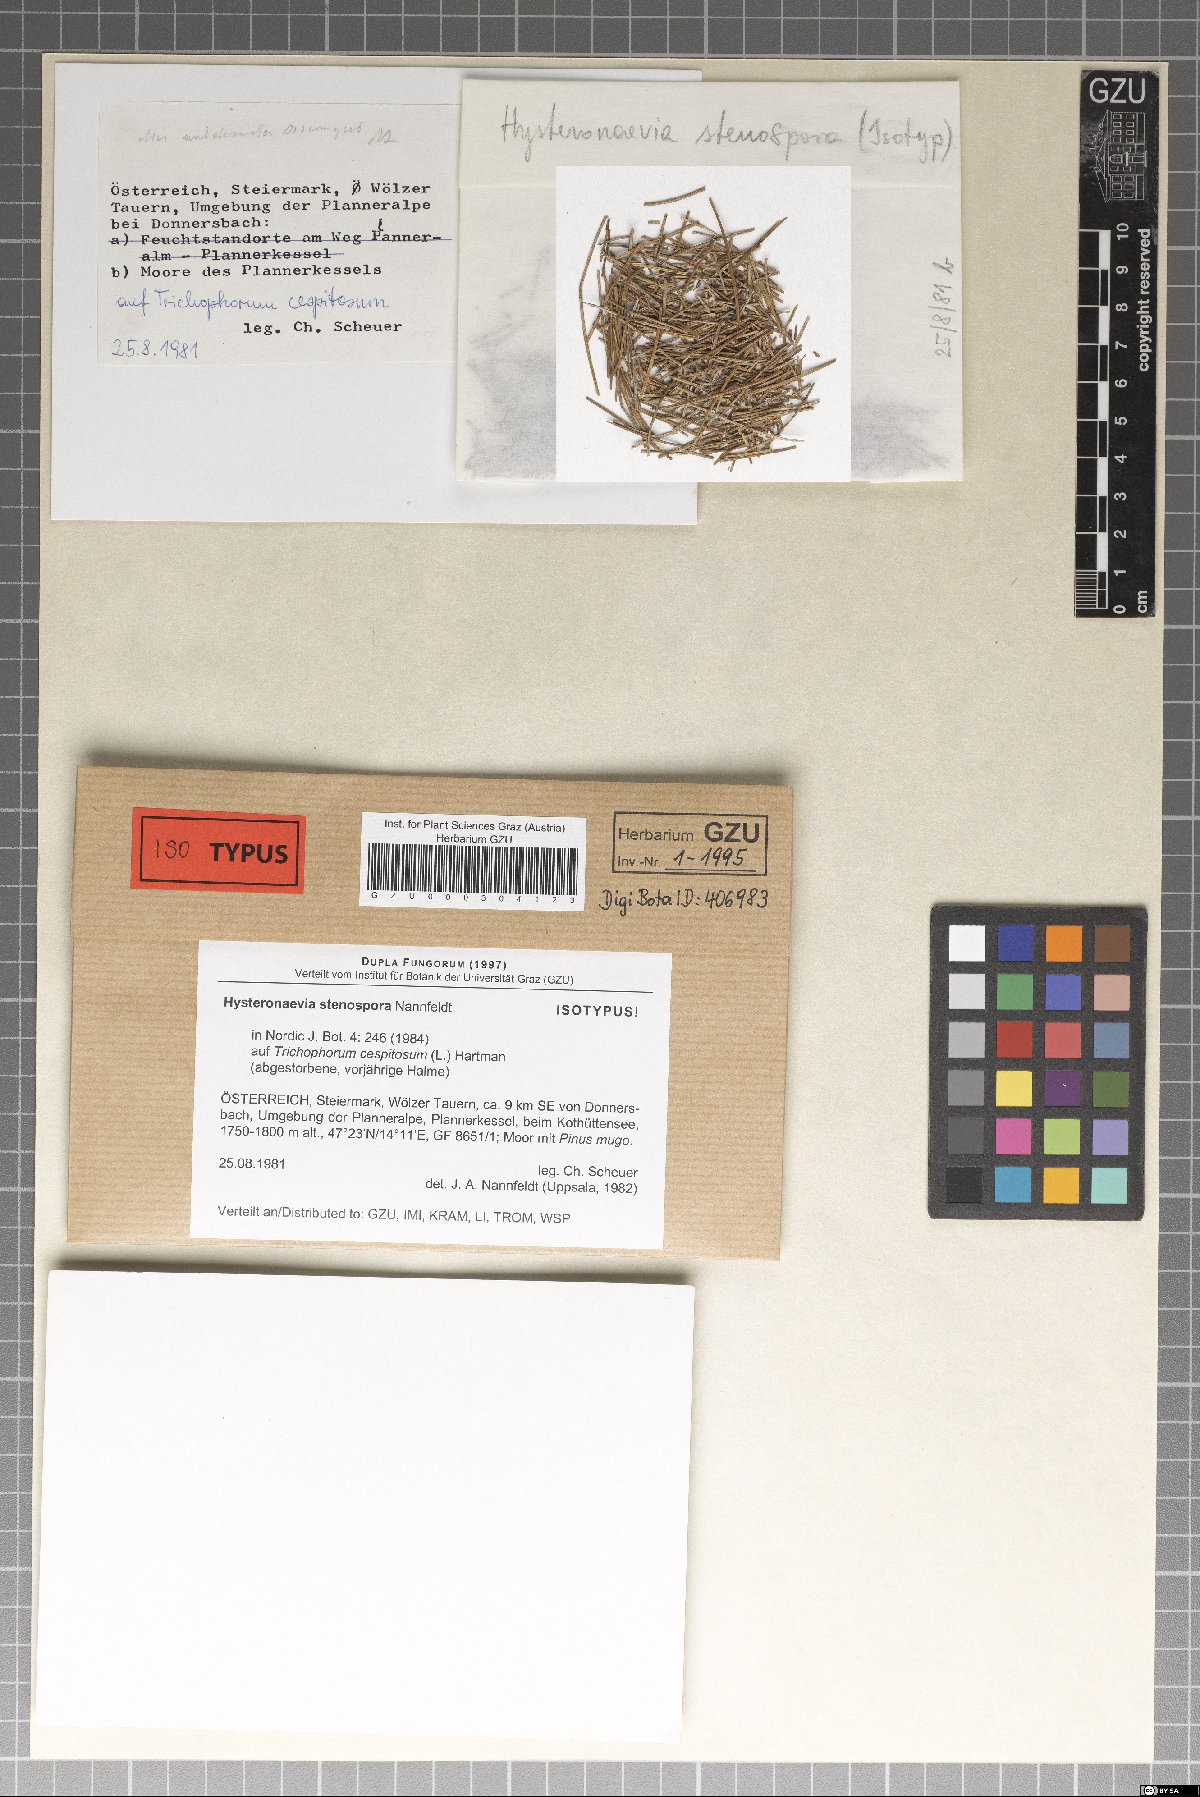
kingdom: Fungi
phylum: Ascomycota
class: Leotiomycetes
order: Helotiales
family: Dermateaceae
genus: Hysteronaevia
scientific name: Hysteronaevia stenospora
